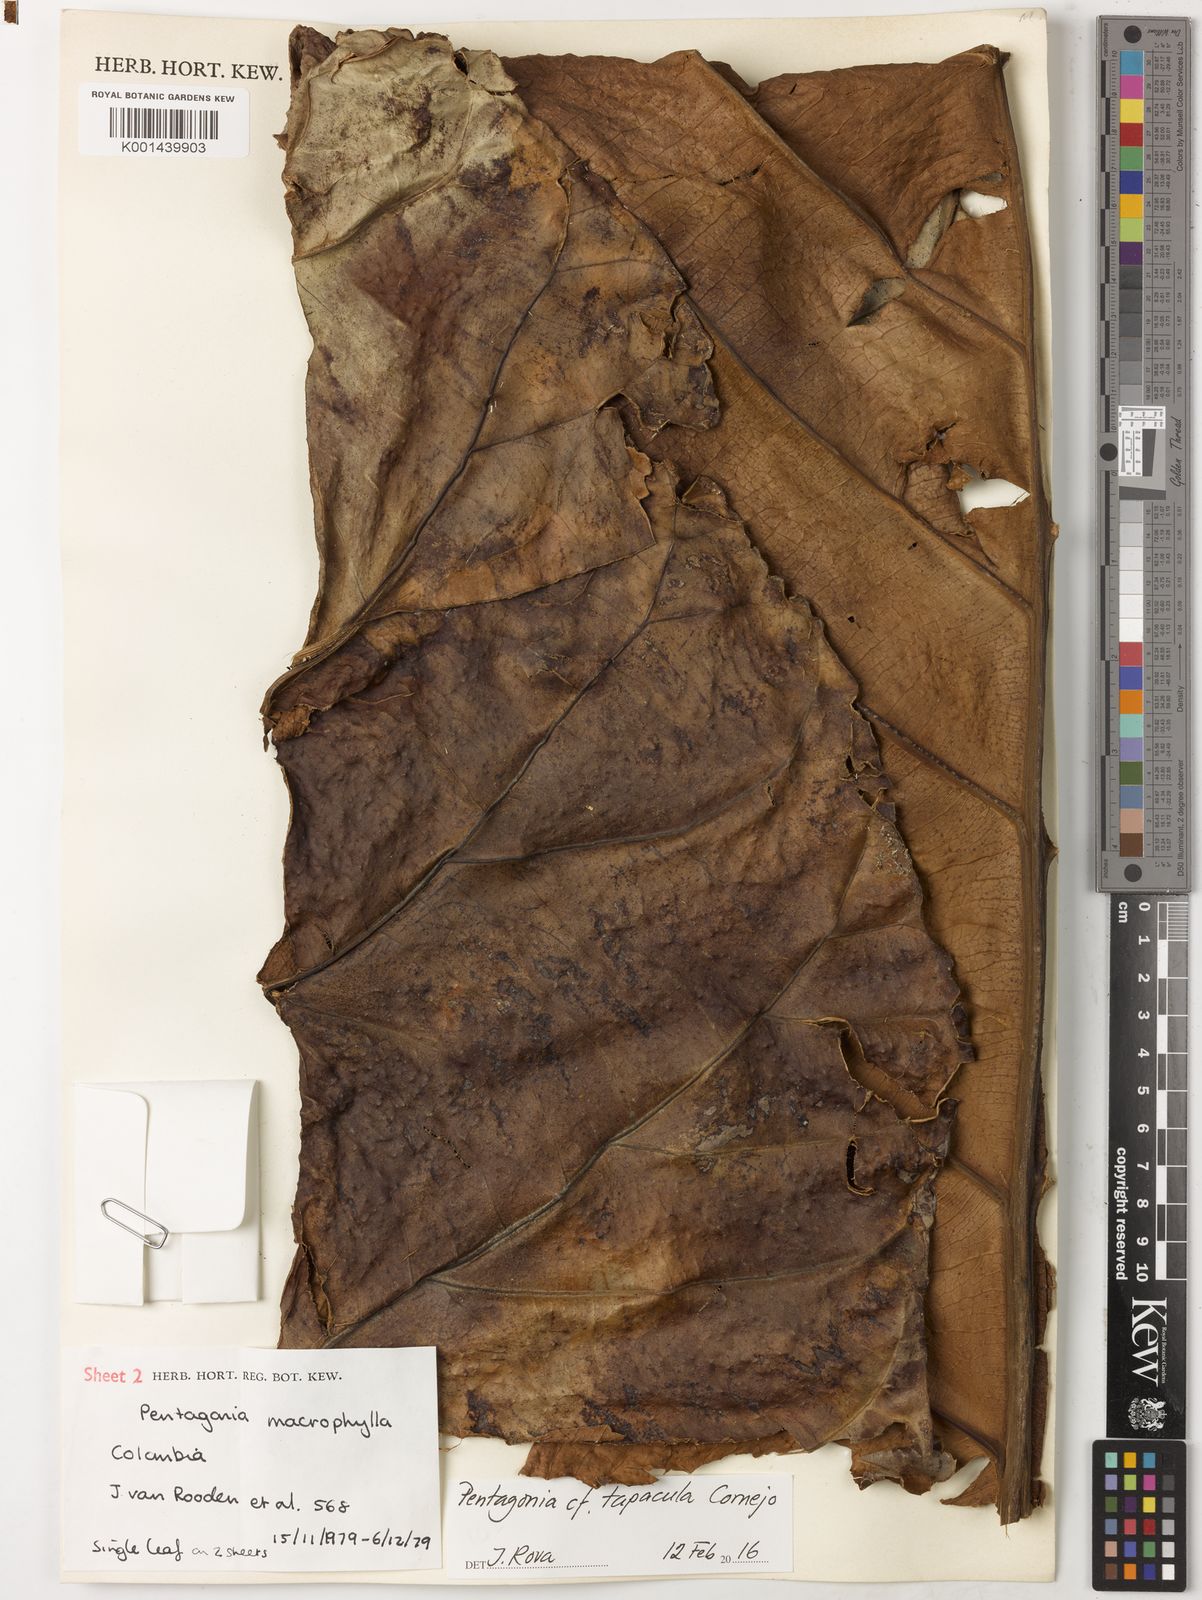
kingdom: Plantae
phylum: Tracheophyta
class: Magnoliopsida
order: Gentianales
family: Rubiaceae
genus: Pentagonia
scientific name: Pentagonia tapacula
